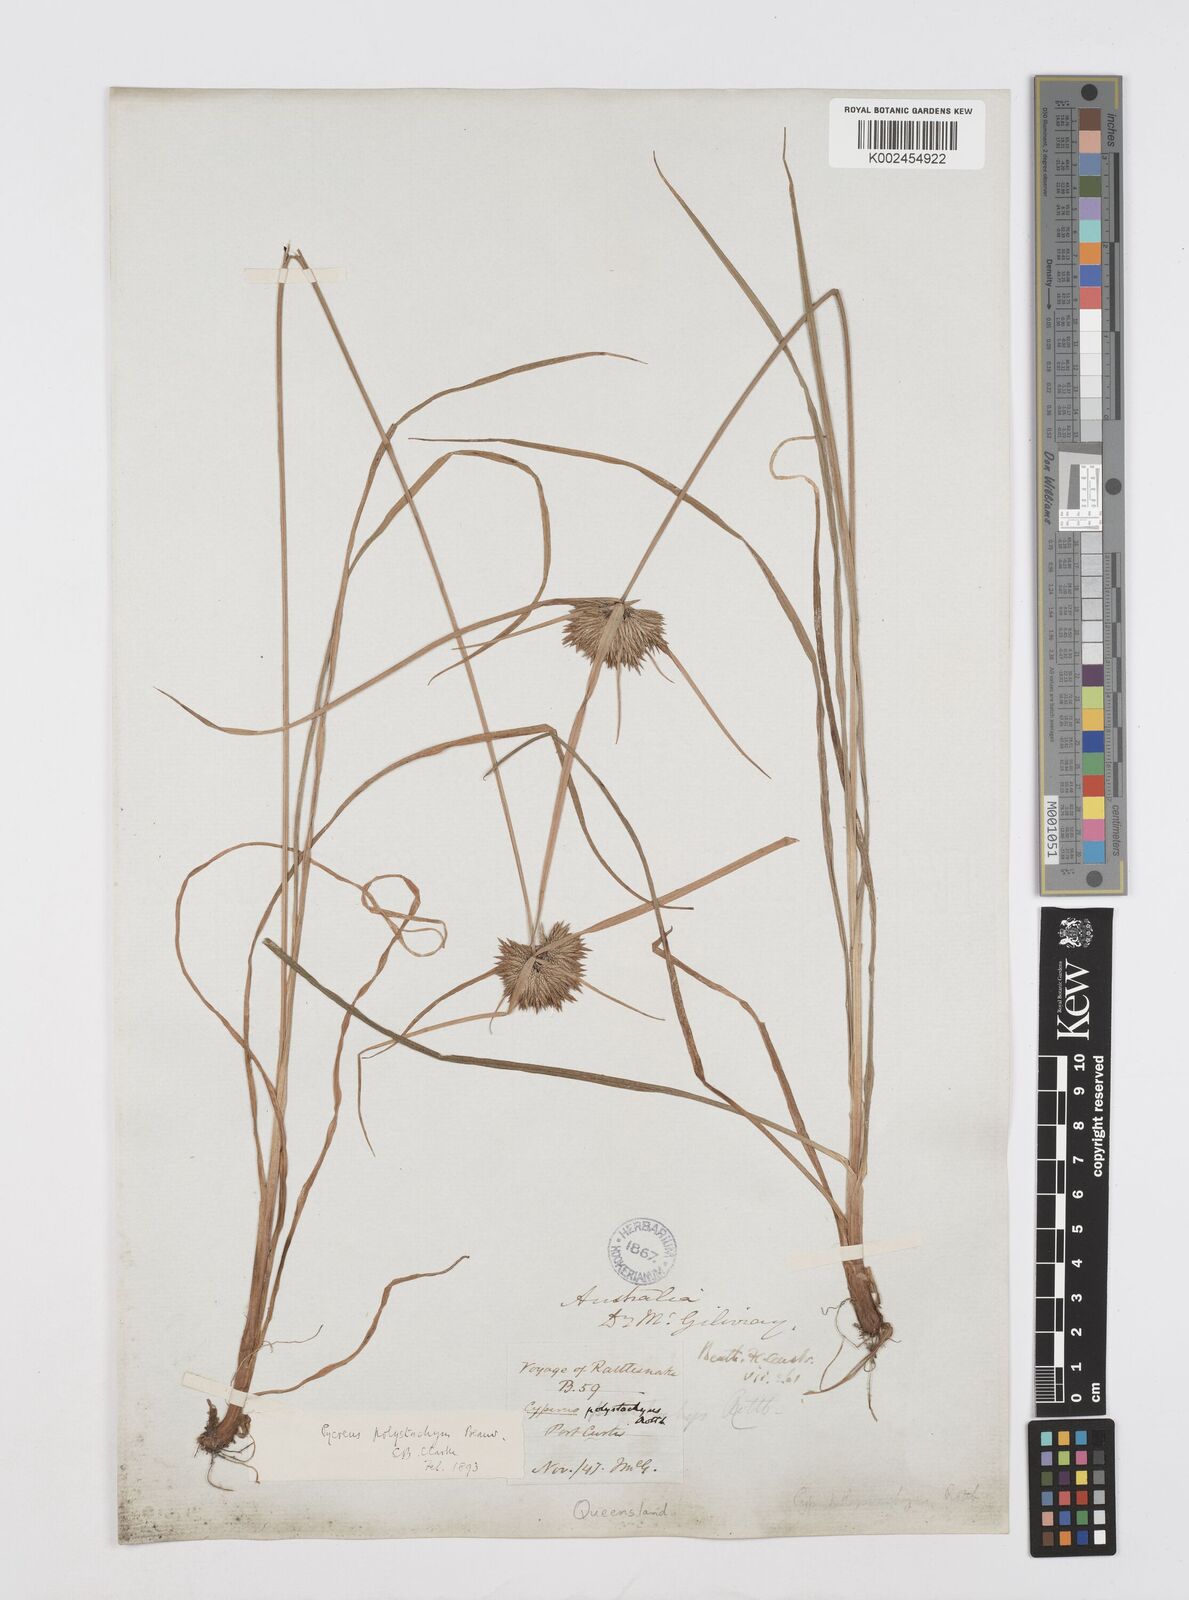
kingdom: Plantae
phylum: Tracheophyta
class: Liliopsida
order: Poales
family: Cyperaceae
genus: Cyperus
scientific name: Cyperus polystachyos
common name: Bunchy flat sedge
